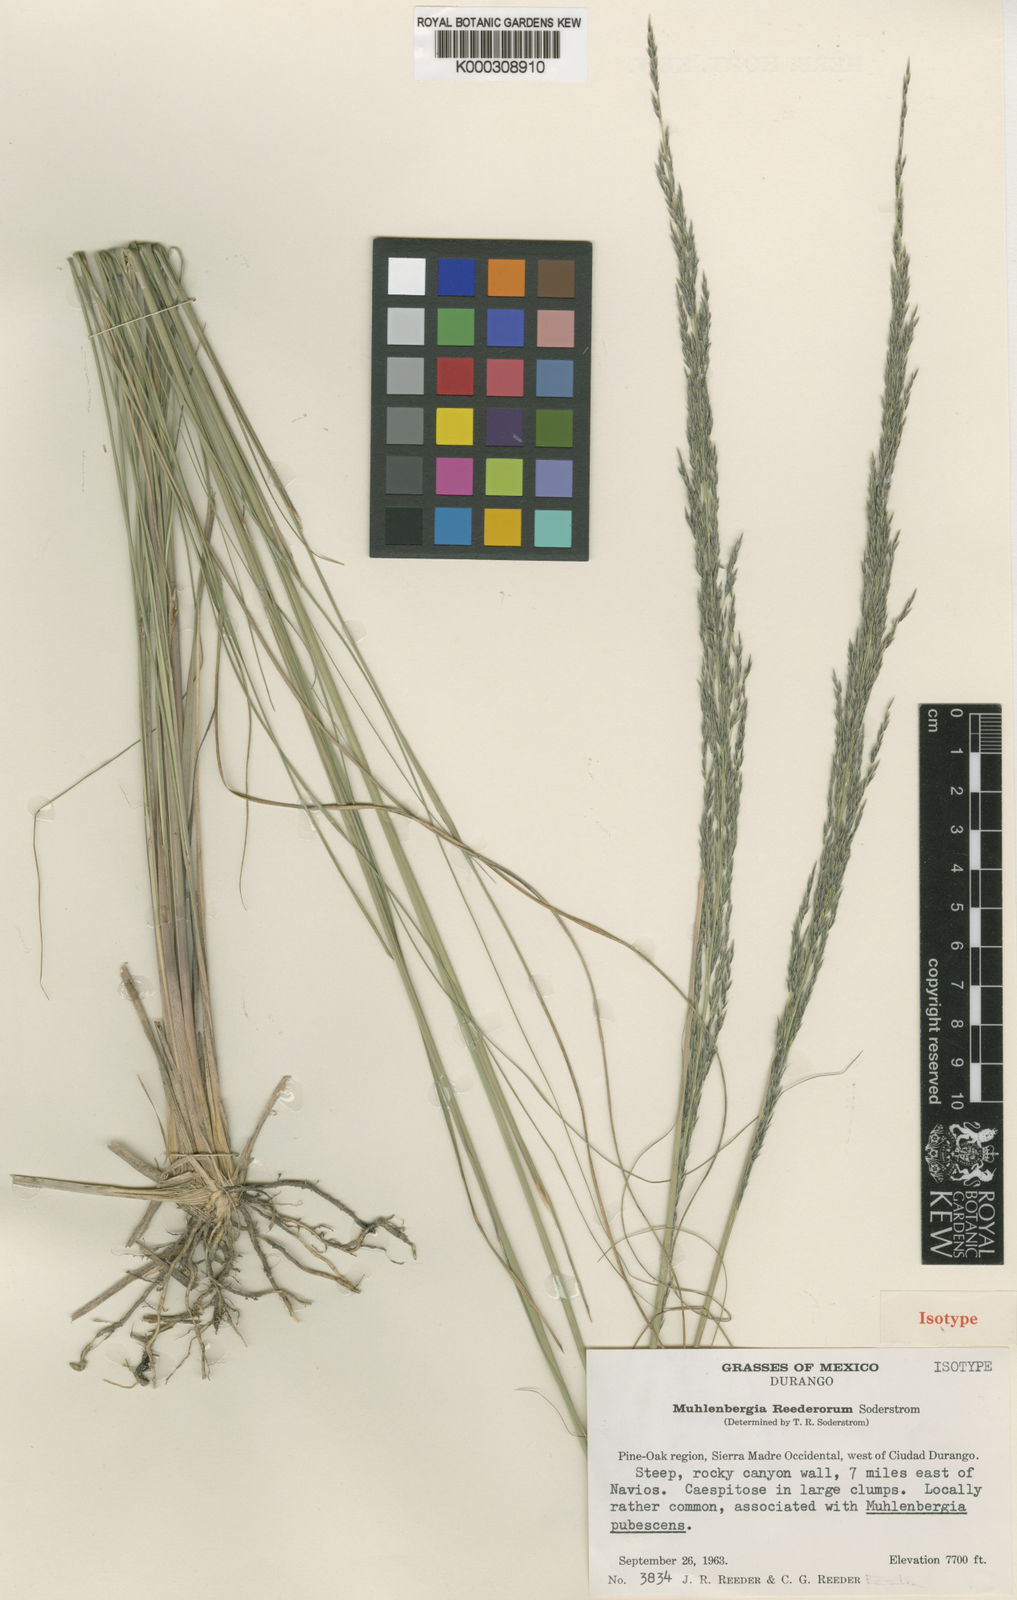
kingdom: Plantae
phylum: Tracheophyta
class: Liliopsida
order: Poales
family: Poaceae
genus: Muhlenbergia
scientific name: Muhlenbergia reederorum
